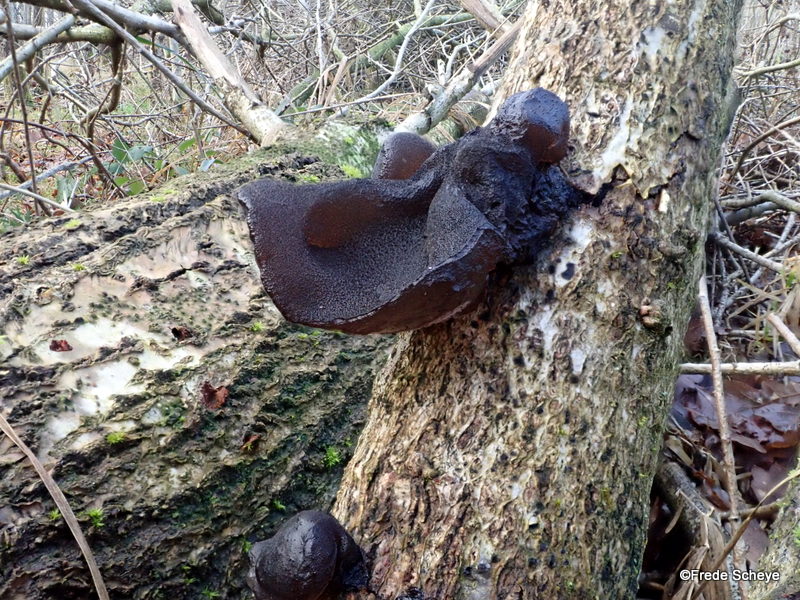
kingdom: Fungi
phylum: Basidiomycota
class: Agaricomycetes
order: Auriculariales
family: Auriculariaceae
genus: Exidia
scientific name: Exidia glandulosa
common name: ege-bævretop
